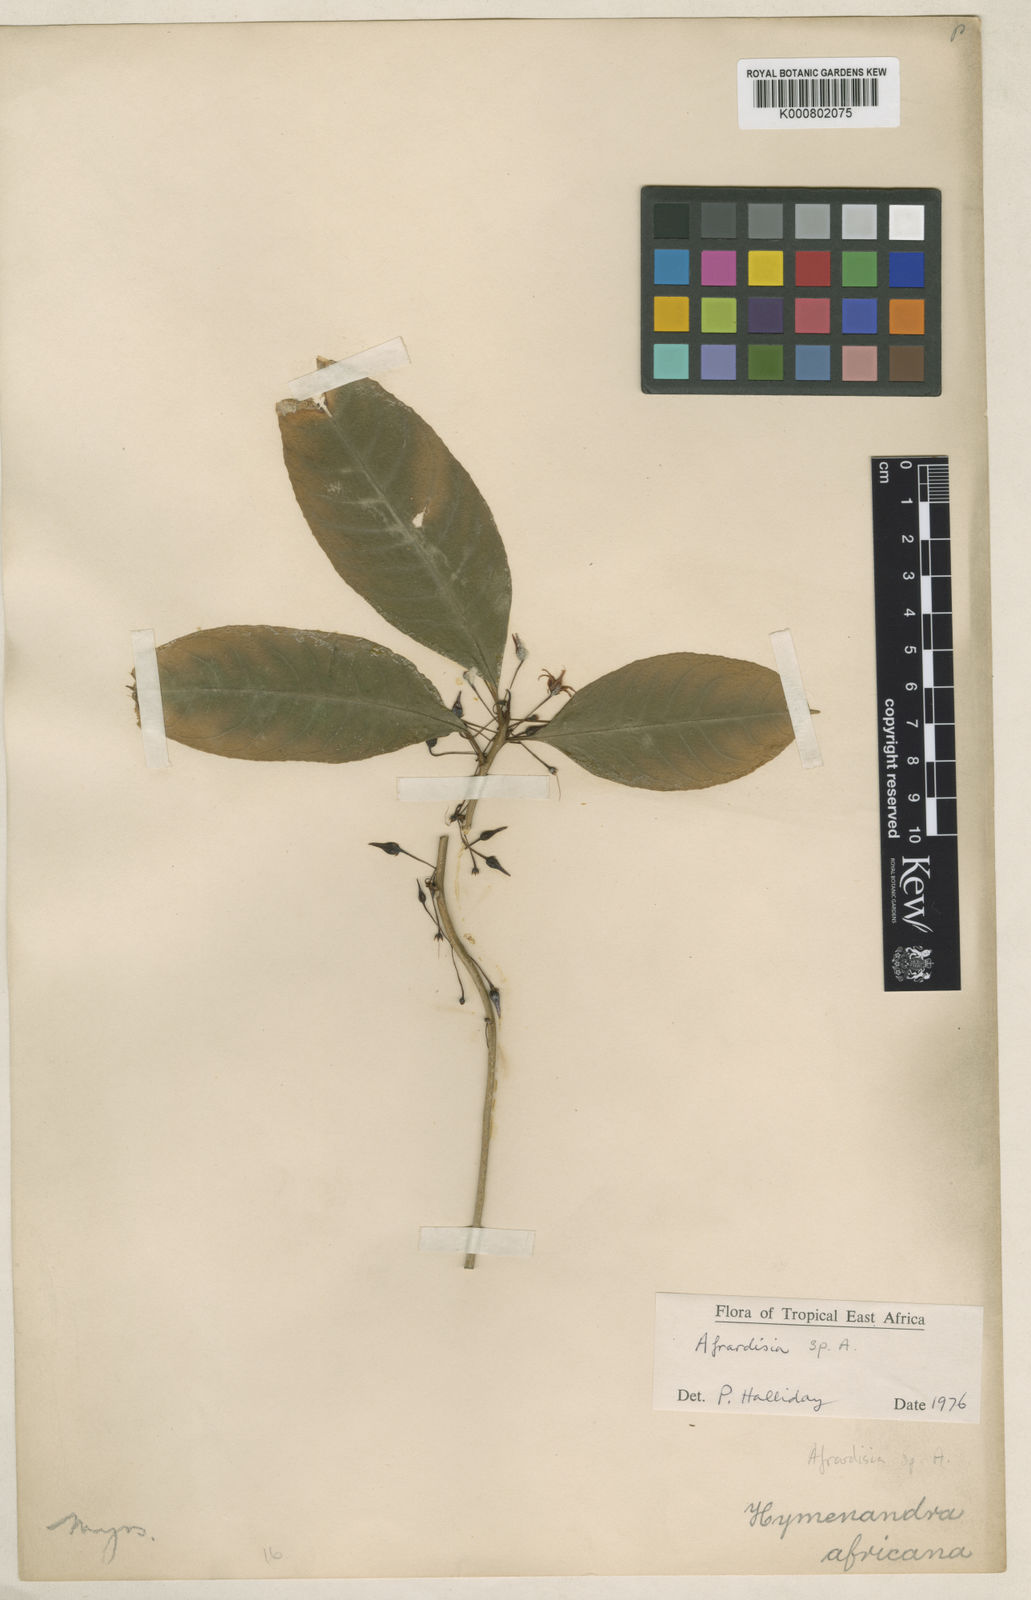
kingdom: Plantae
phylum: Tracheophyta
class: Magnoliopsida
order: Ericales
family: Primulaceae
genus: Ardisia
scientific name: Ardisia
